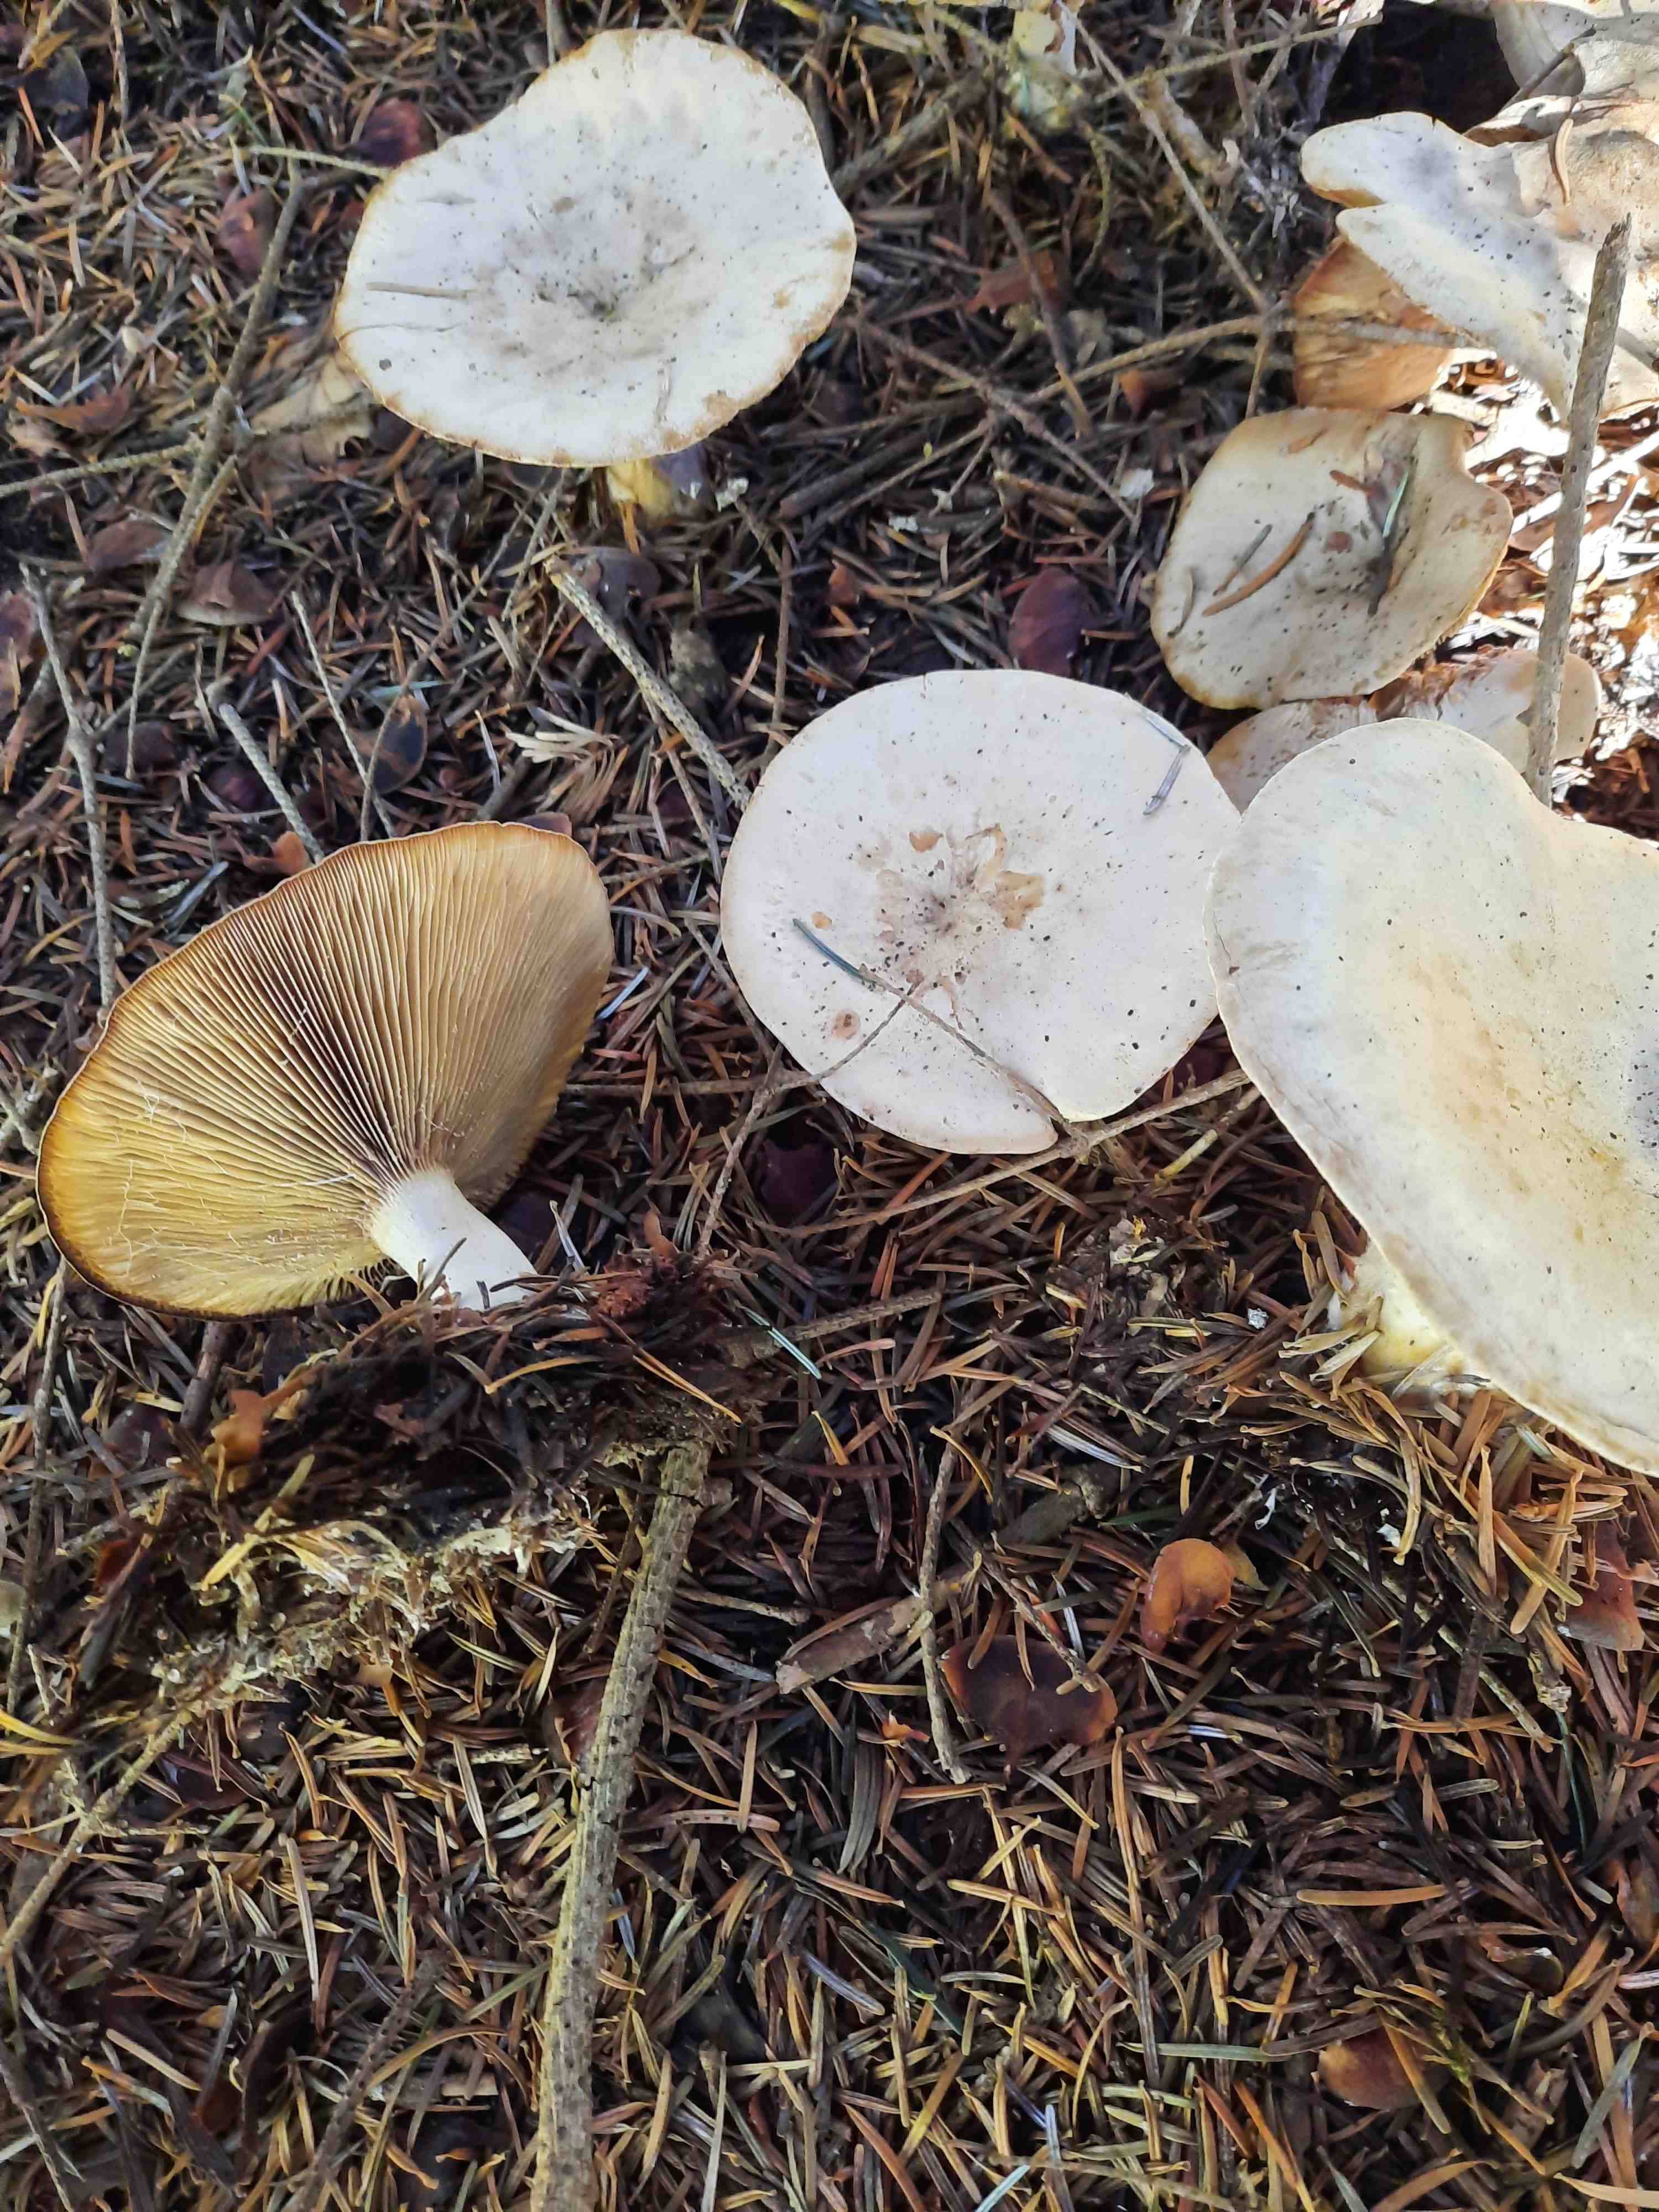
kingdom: Fungi
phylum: Basidiomycota
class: Agaricomycetes
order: Agaricales
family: Pseudoclitocybaceae
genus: Clitopaxillus
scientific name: Clitopaxillus fibulatus
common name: bestøvlet tragthat
